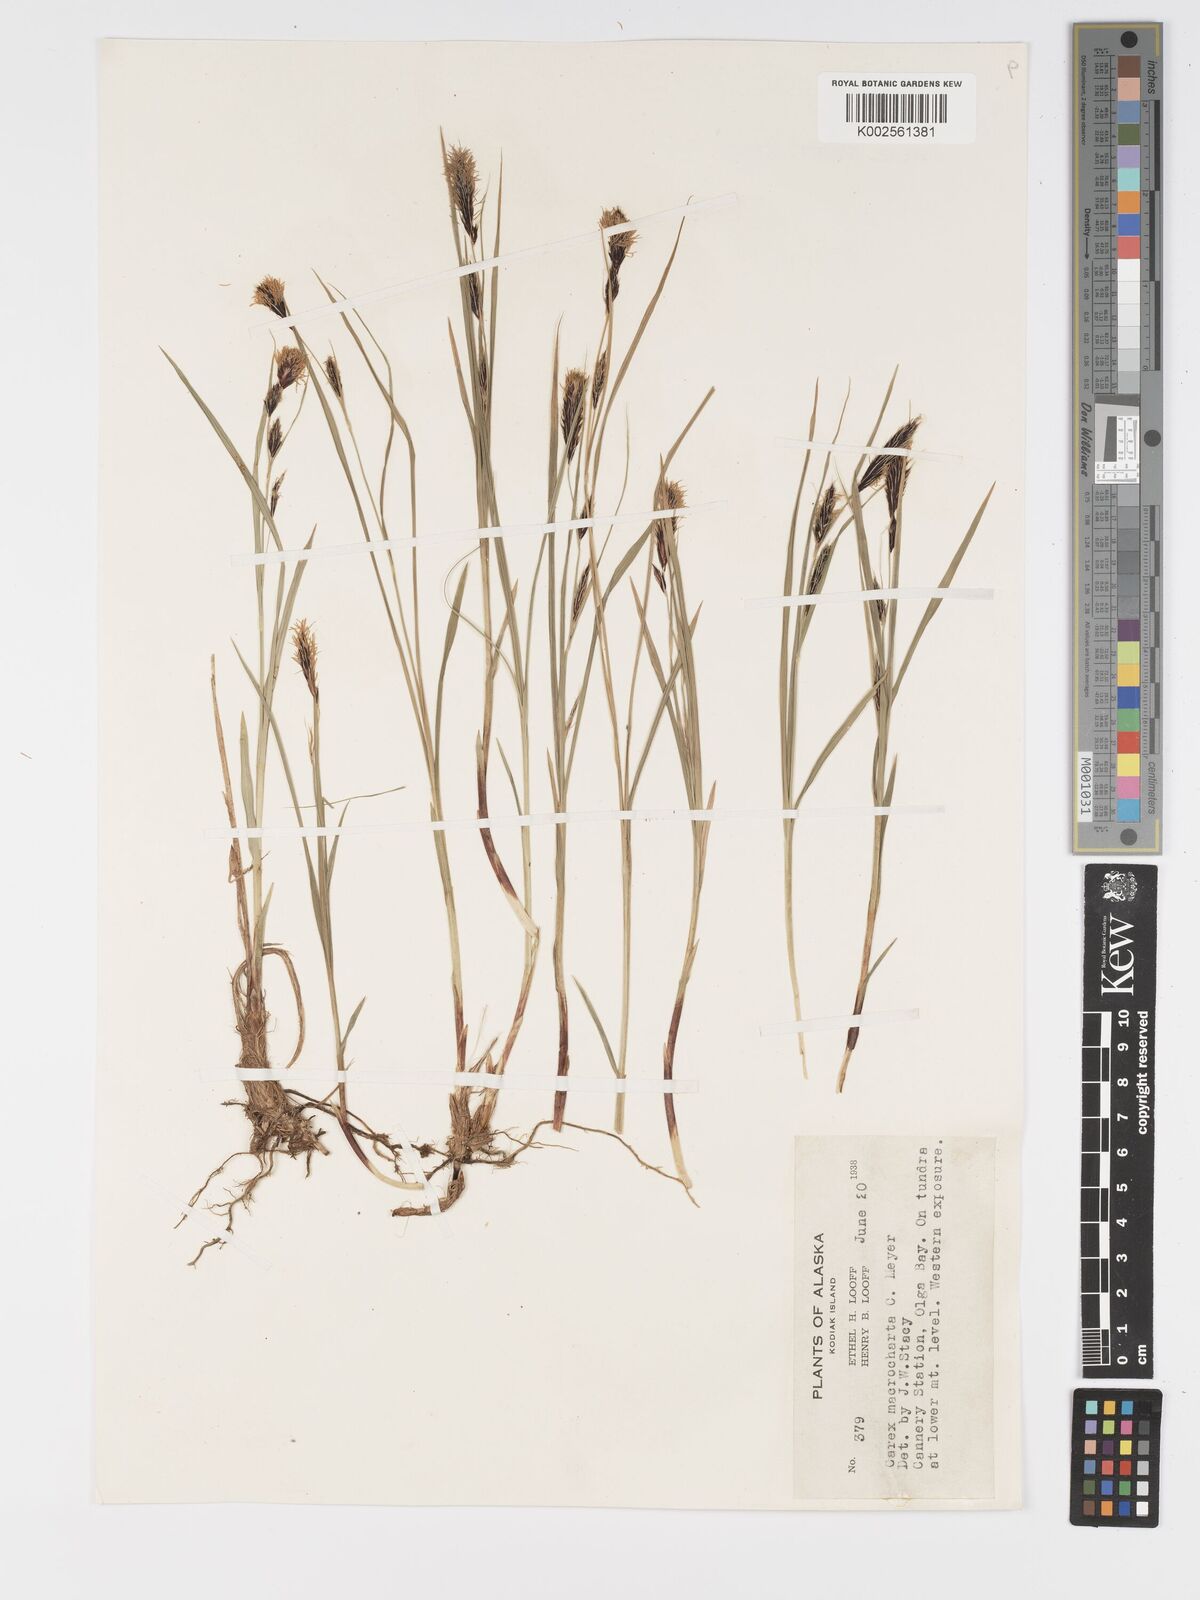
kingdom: Plantae
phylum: Tracheophyta
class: Liliopsida
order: Poales
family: Cyperaceae
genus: Carex
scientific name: Carex macrochaeta
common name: Alaska large awn sedge
